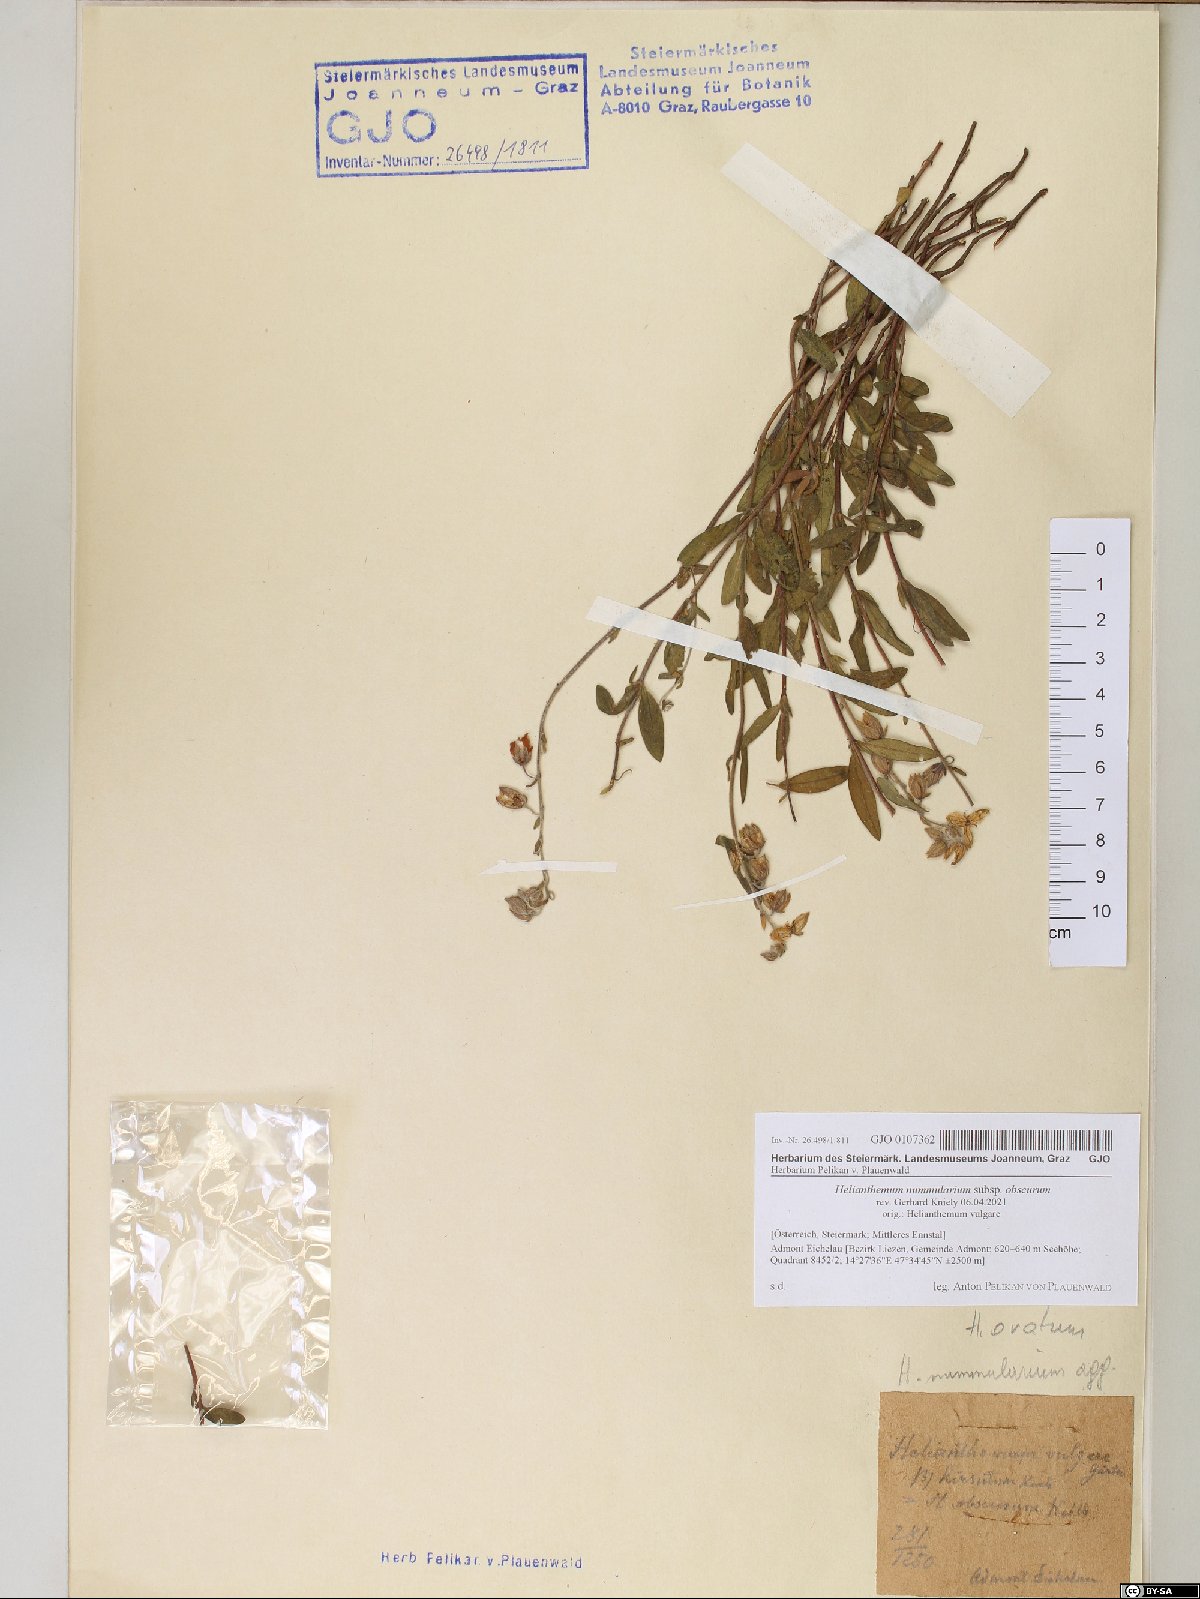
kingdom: Plantae
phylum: Tracheophyta
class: Magnoliopsida
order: Malvales
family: Cistaceae
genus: Helianthemum
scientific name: Helianthemum nummularium
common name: Common rock-rose
